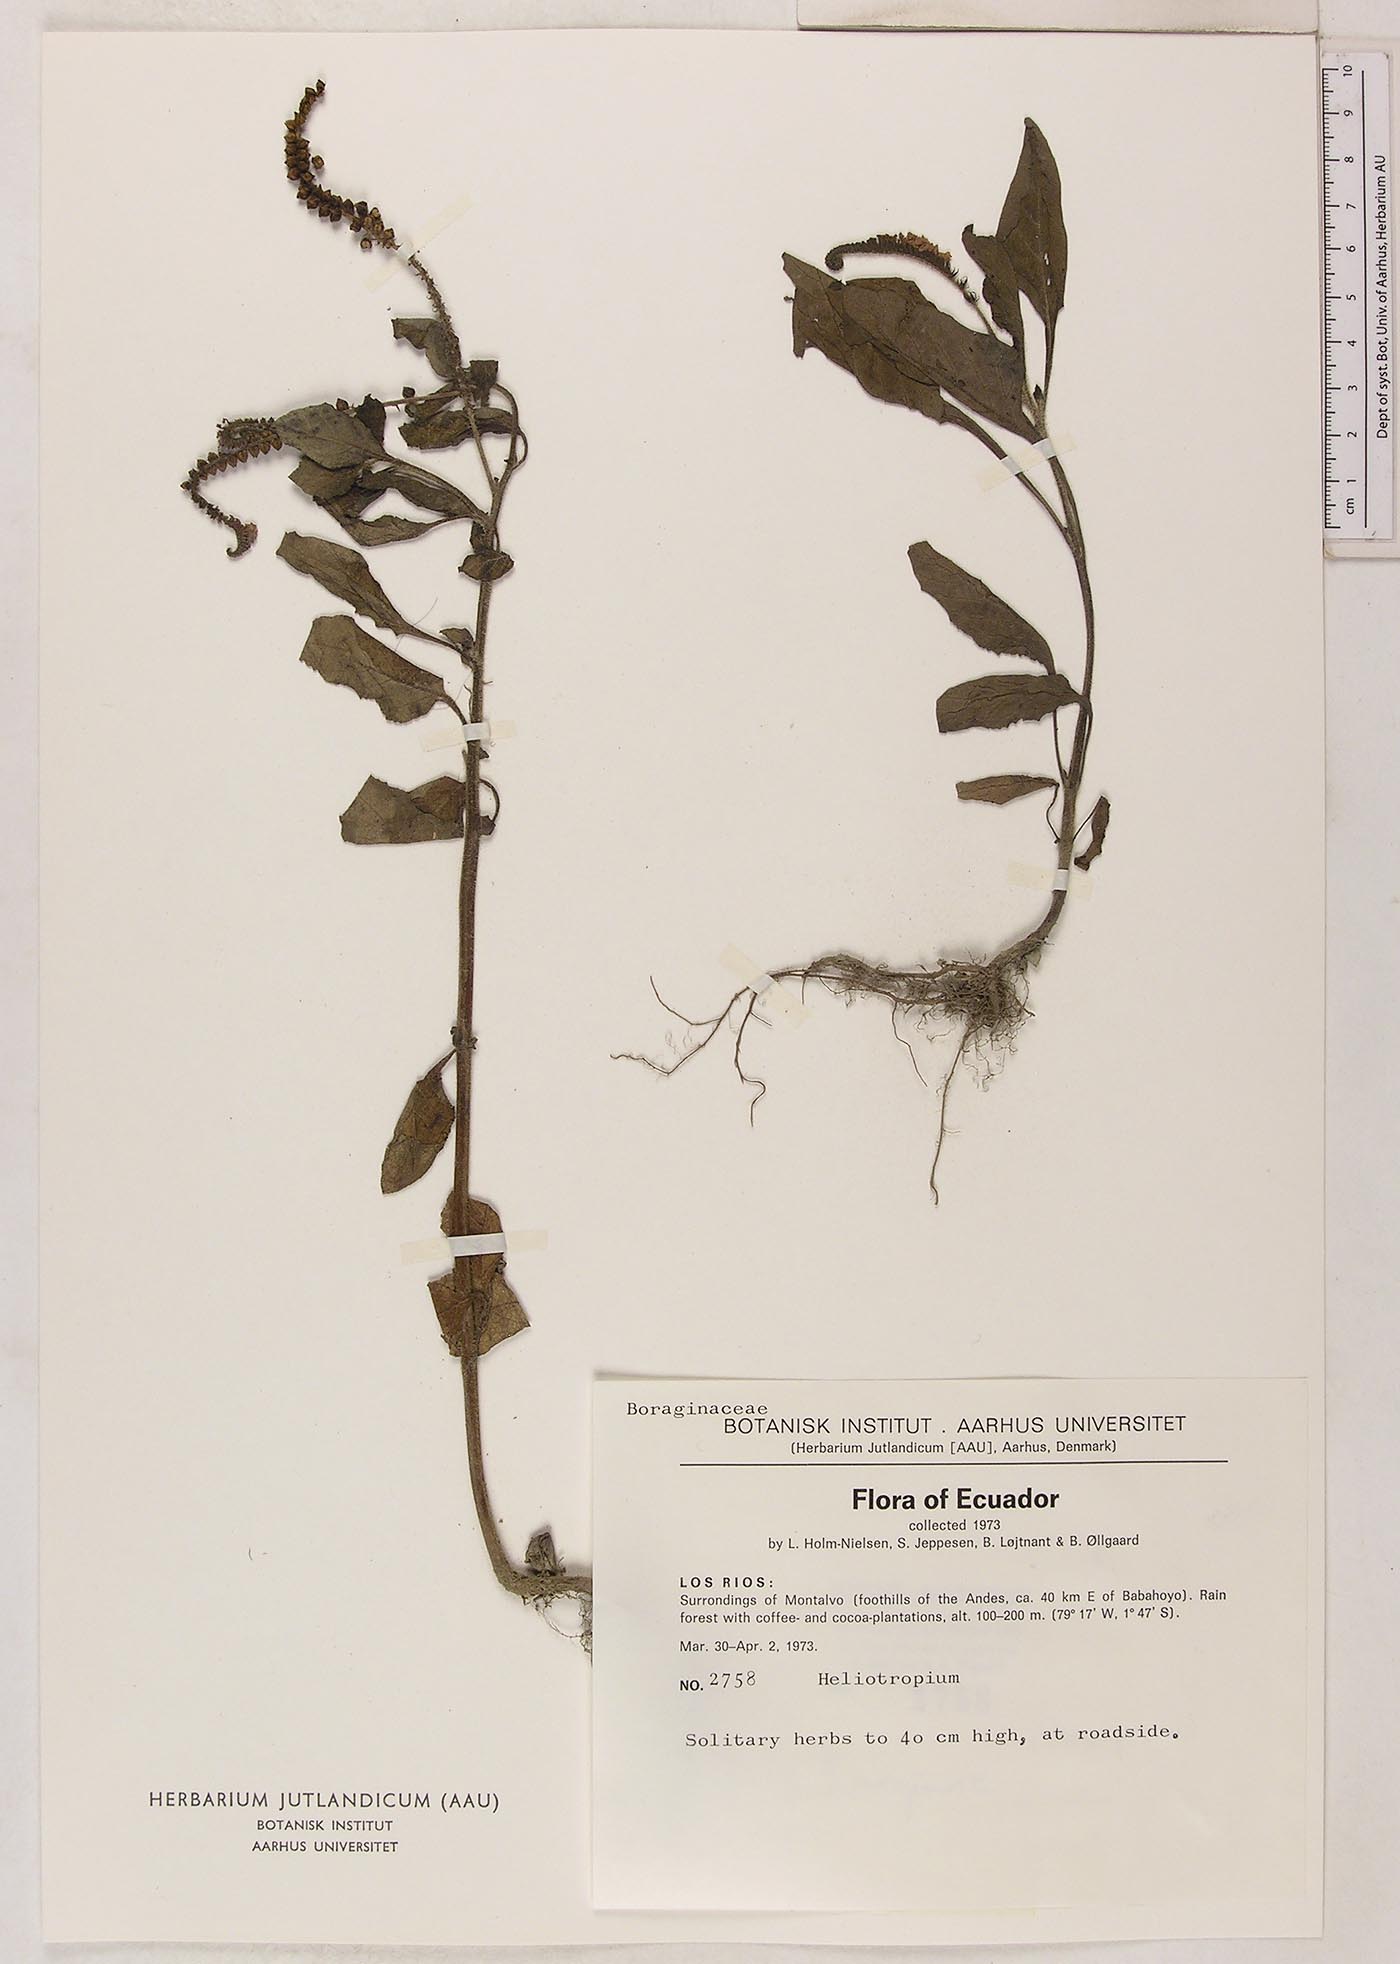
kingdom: Plantae
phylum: Tracheophyta
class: Magnoliopsida
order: Boraginales
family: Heliotropiaceae
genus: Heliotropium
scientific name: Heliotropium indicum
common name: Indian heliotrope
